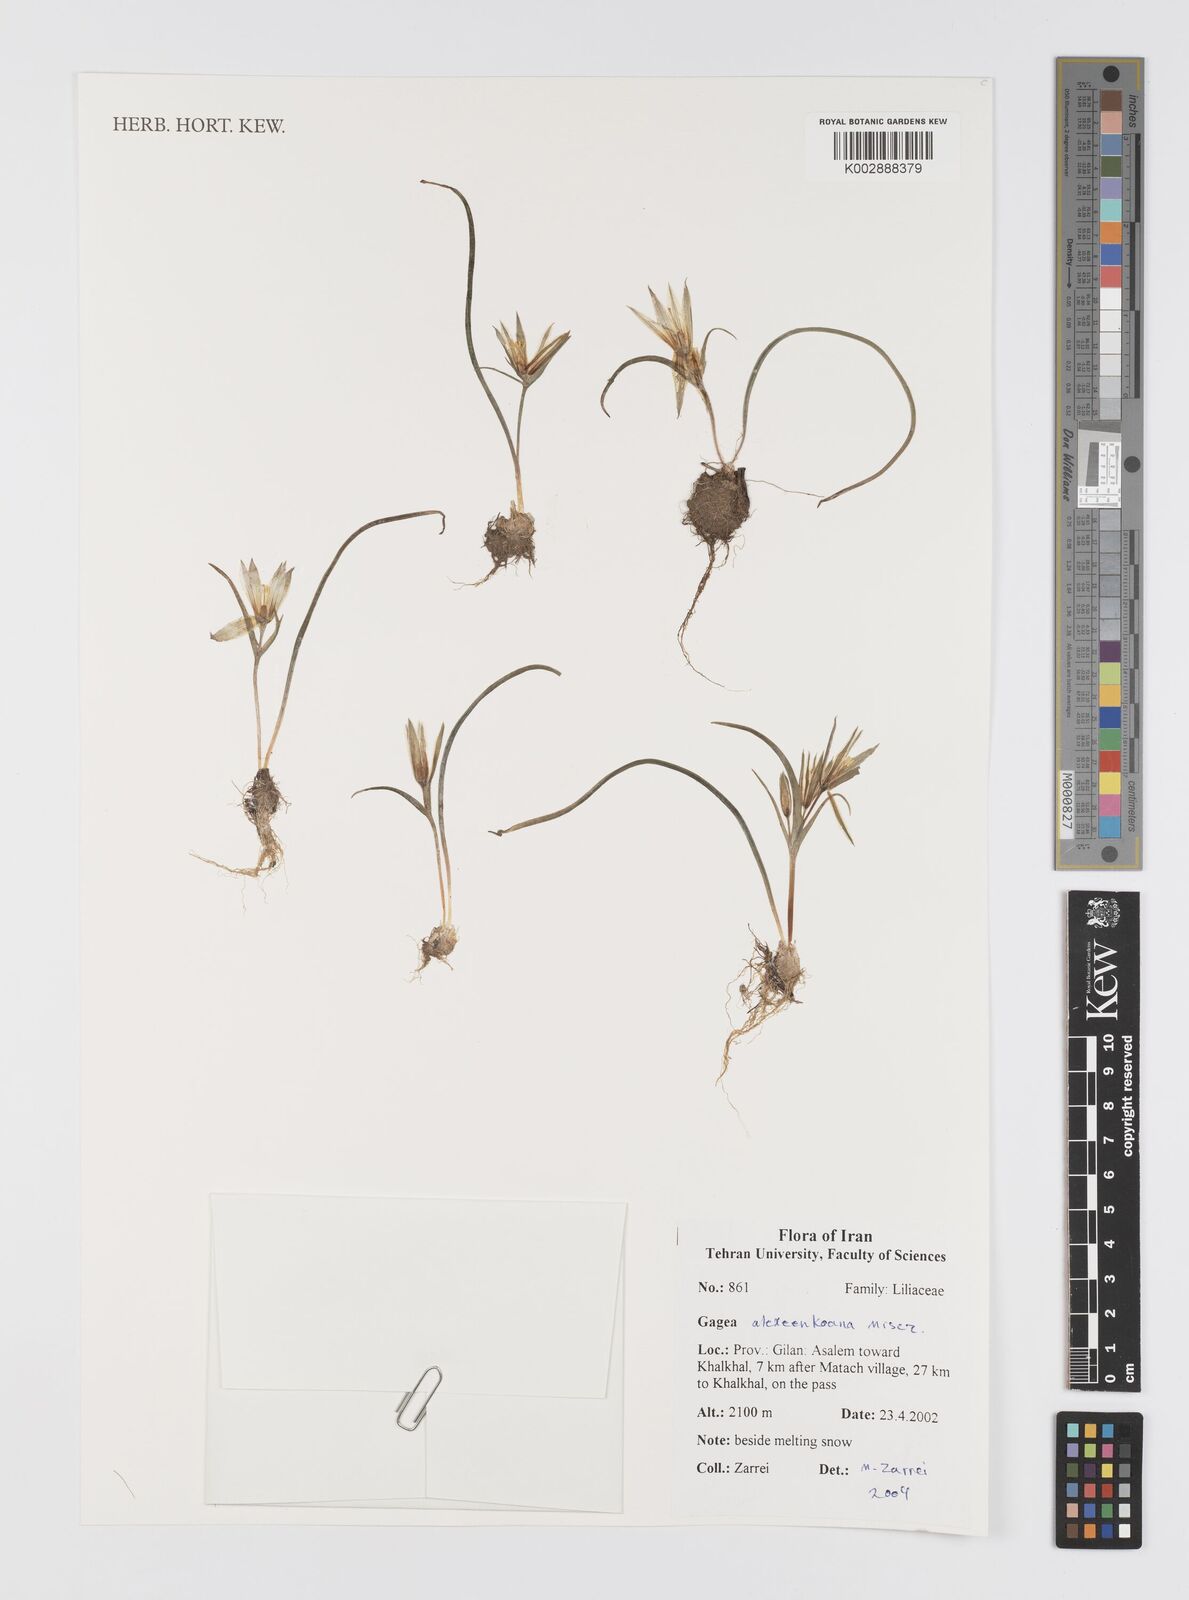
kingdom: Plantae
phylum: Tracheophyta
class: Liliopsida
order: Liliales
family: Liliaceae
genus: Gagea
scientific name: Gagea alexeenkoana
